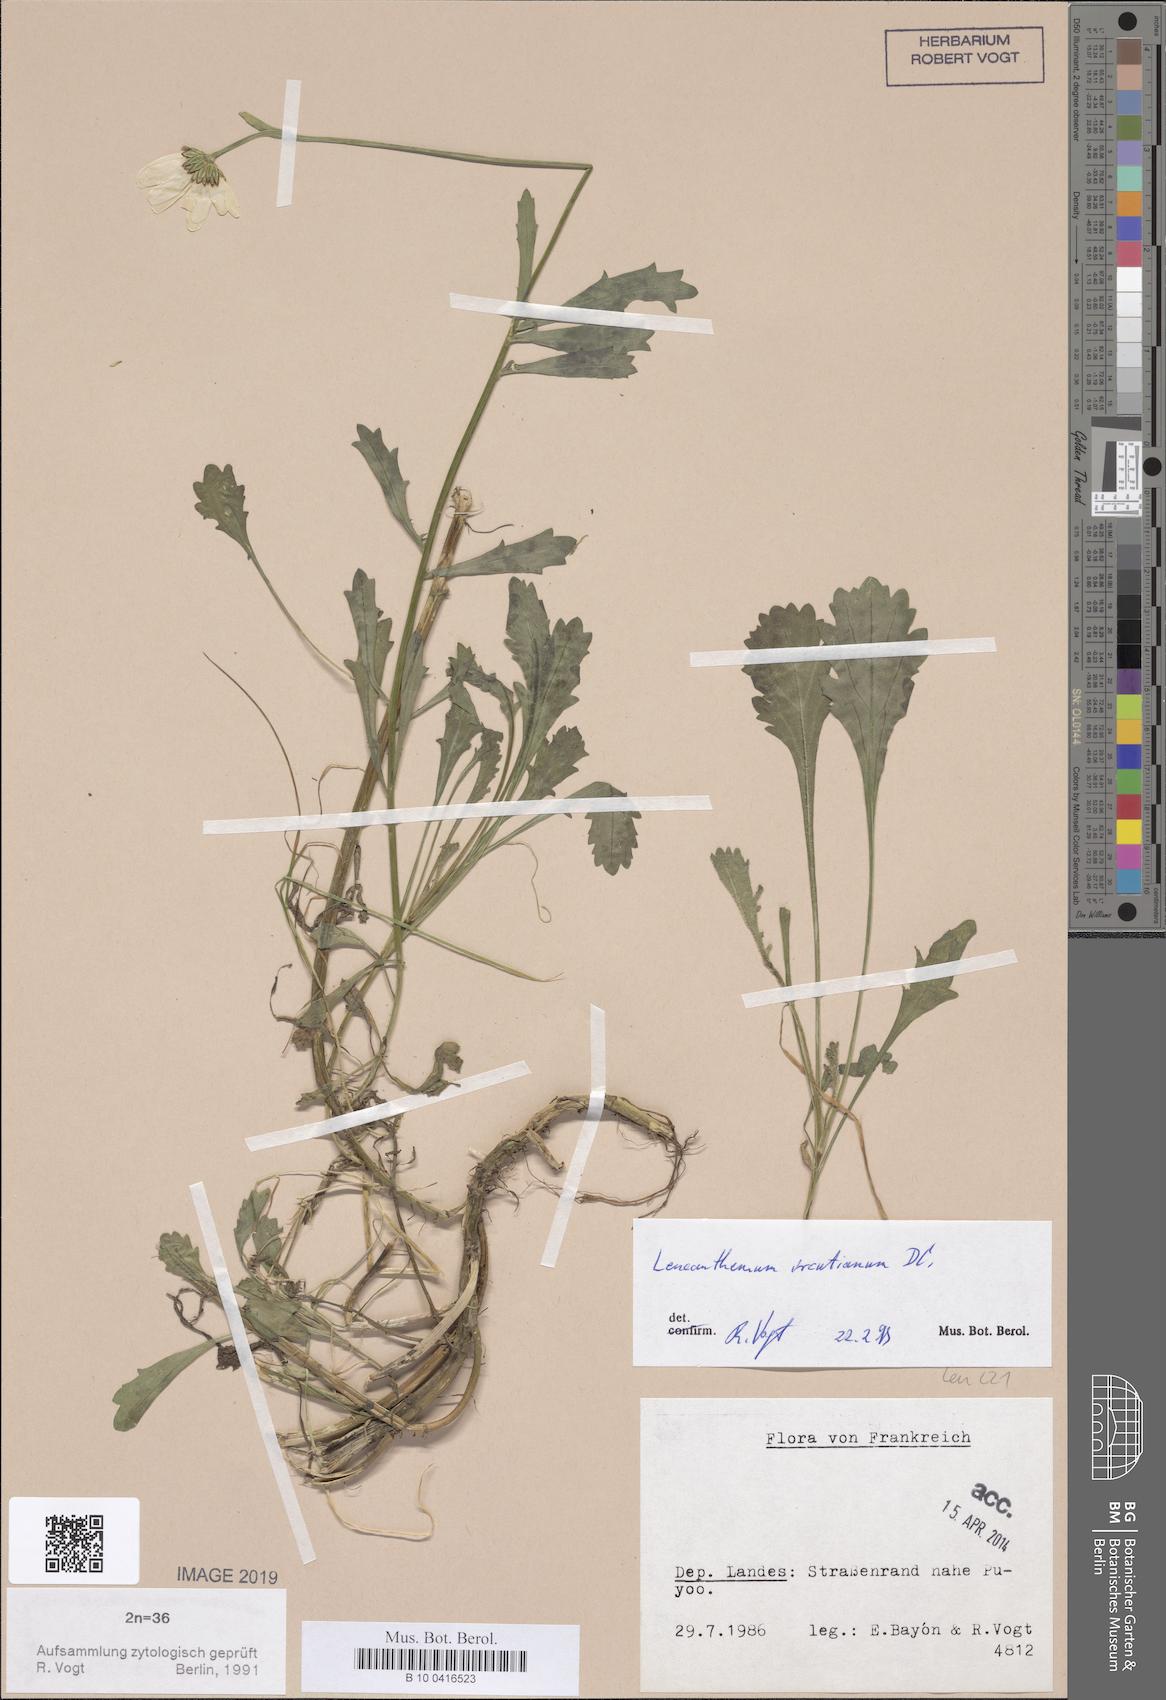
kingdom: Plantae
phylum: Tracheophyta
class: Magnoliopsida
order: Asterales
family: Asteraceae
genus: Leucanthemum
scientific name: Leucanthemum ircutianum
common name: Daisy
